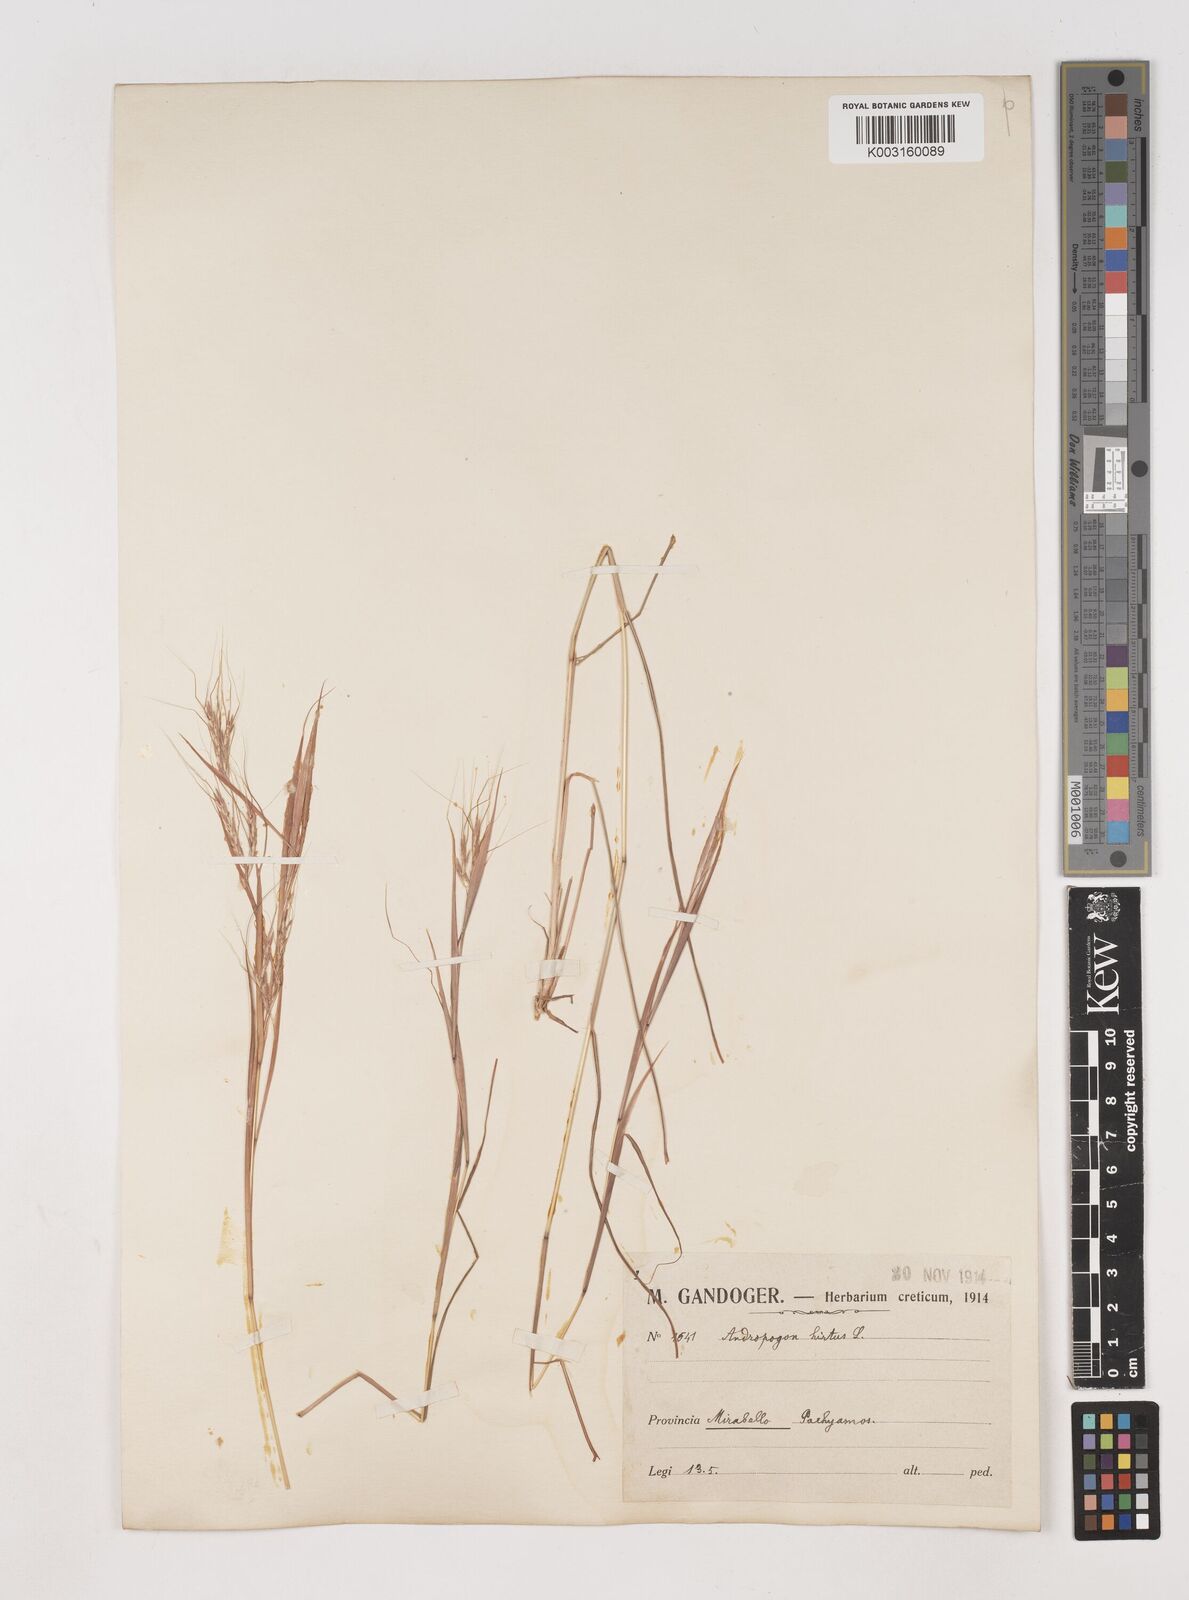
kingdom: Plantae
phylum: Tracheophyta
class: Liliopsida
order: Poales
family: Poaceae
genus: Hyparrhenia
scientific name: Hyparrhenia hirta
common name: Thatching grass
